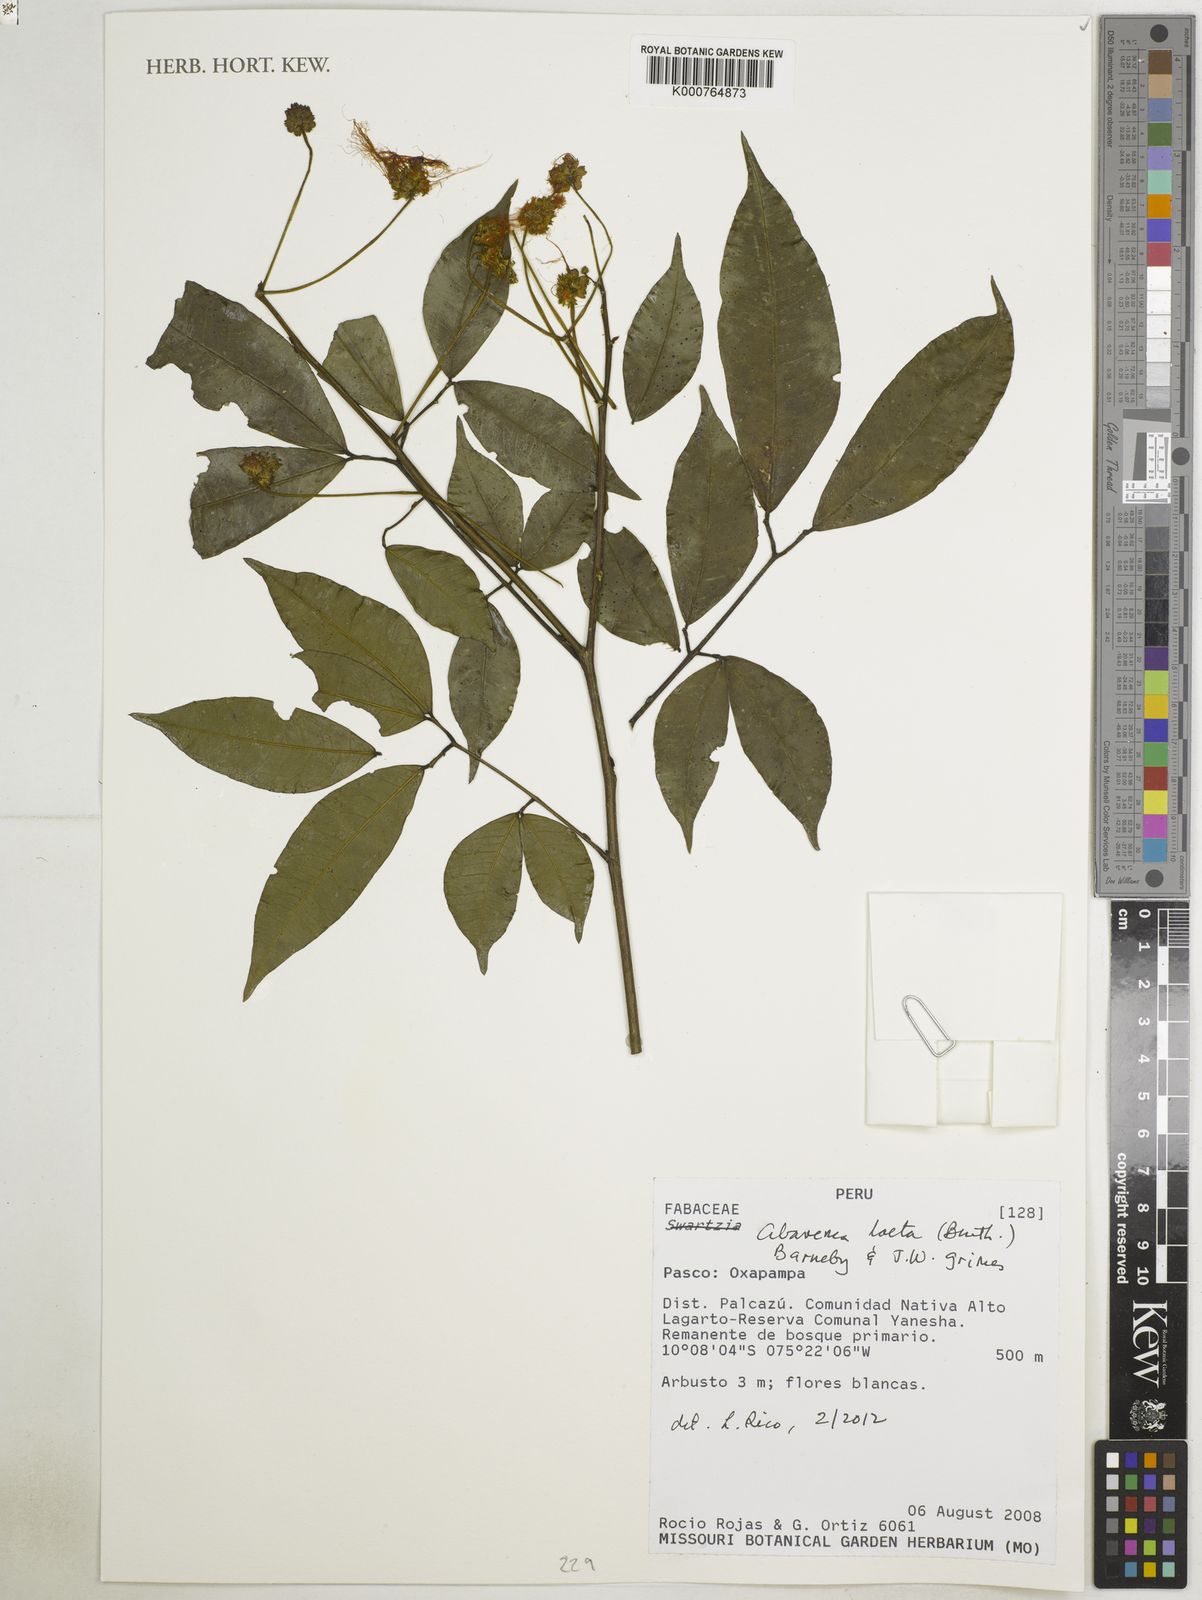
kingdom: Plantae
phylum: Tracheophyta
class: Magnoliopsida
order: Fabales
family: Fabaceae
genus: Jupunba
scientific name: Jupunba laeta
